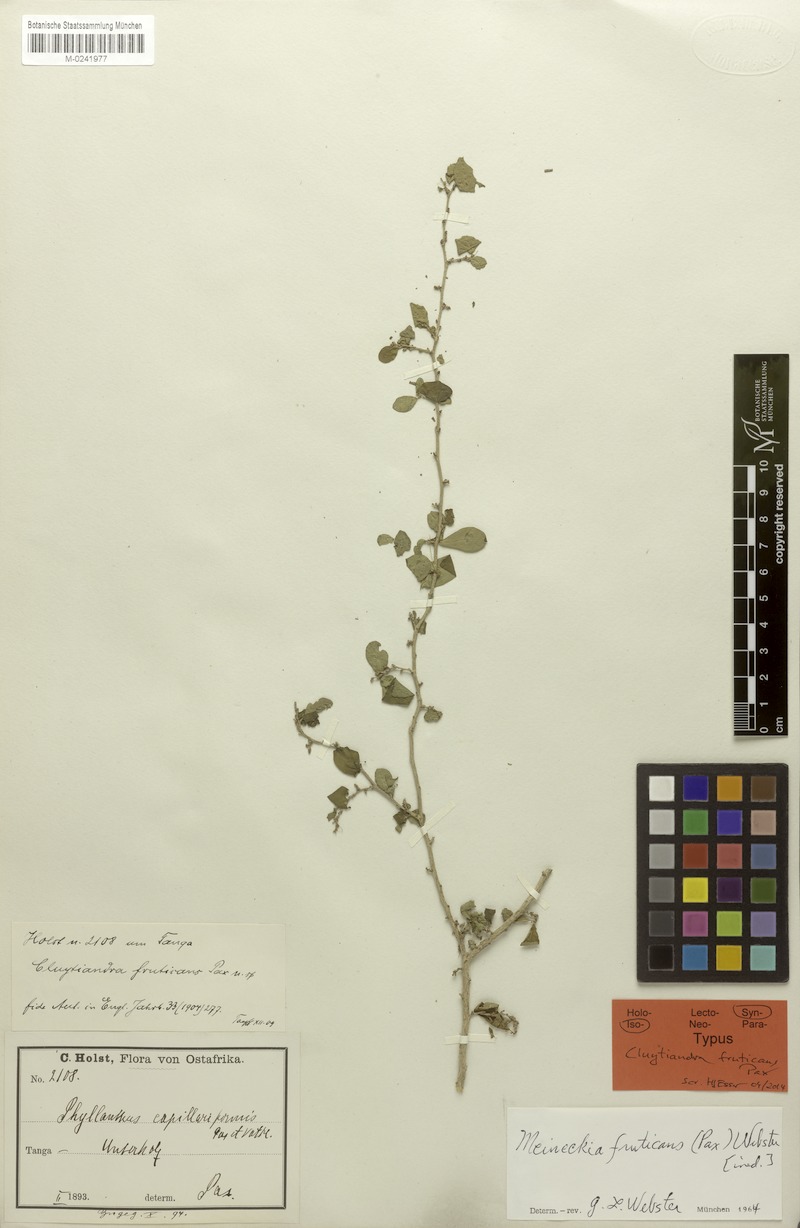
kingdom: Plantae
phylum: Tracheophyta
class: Magnoliopsida
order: Malpighiales
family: Phyllanthaceae
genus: Meineckia
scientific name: Meineckia fruticans
